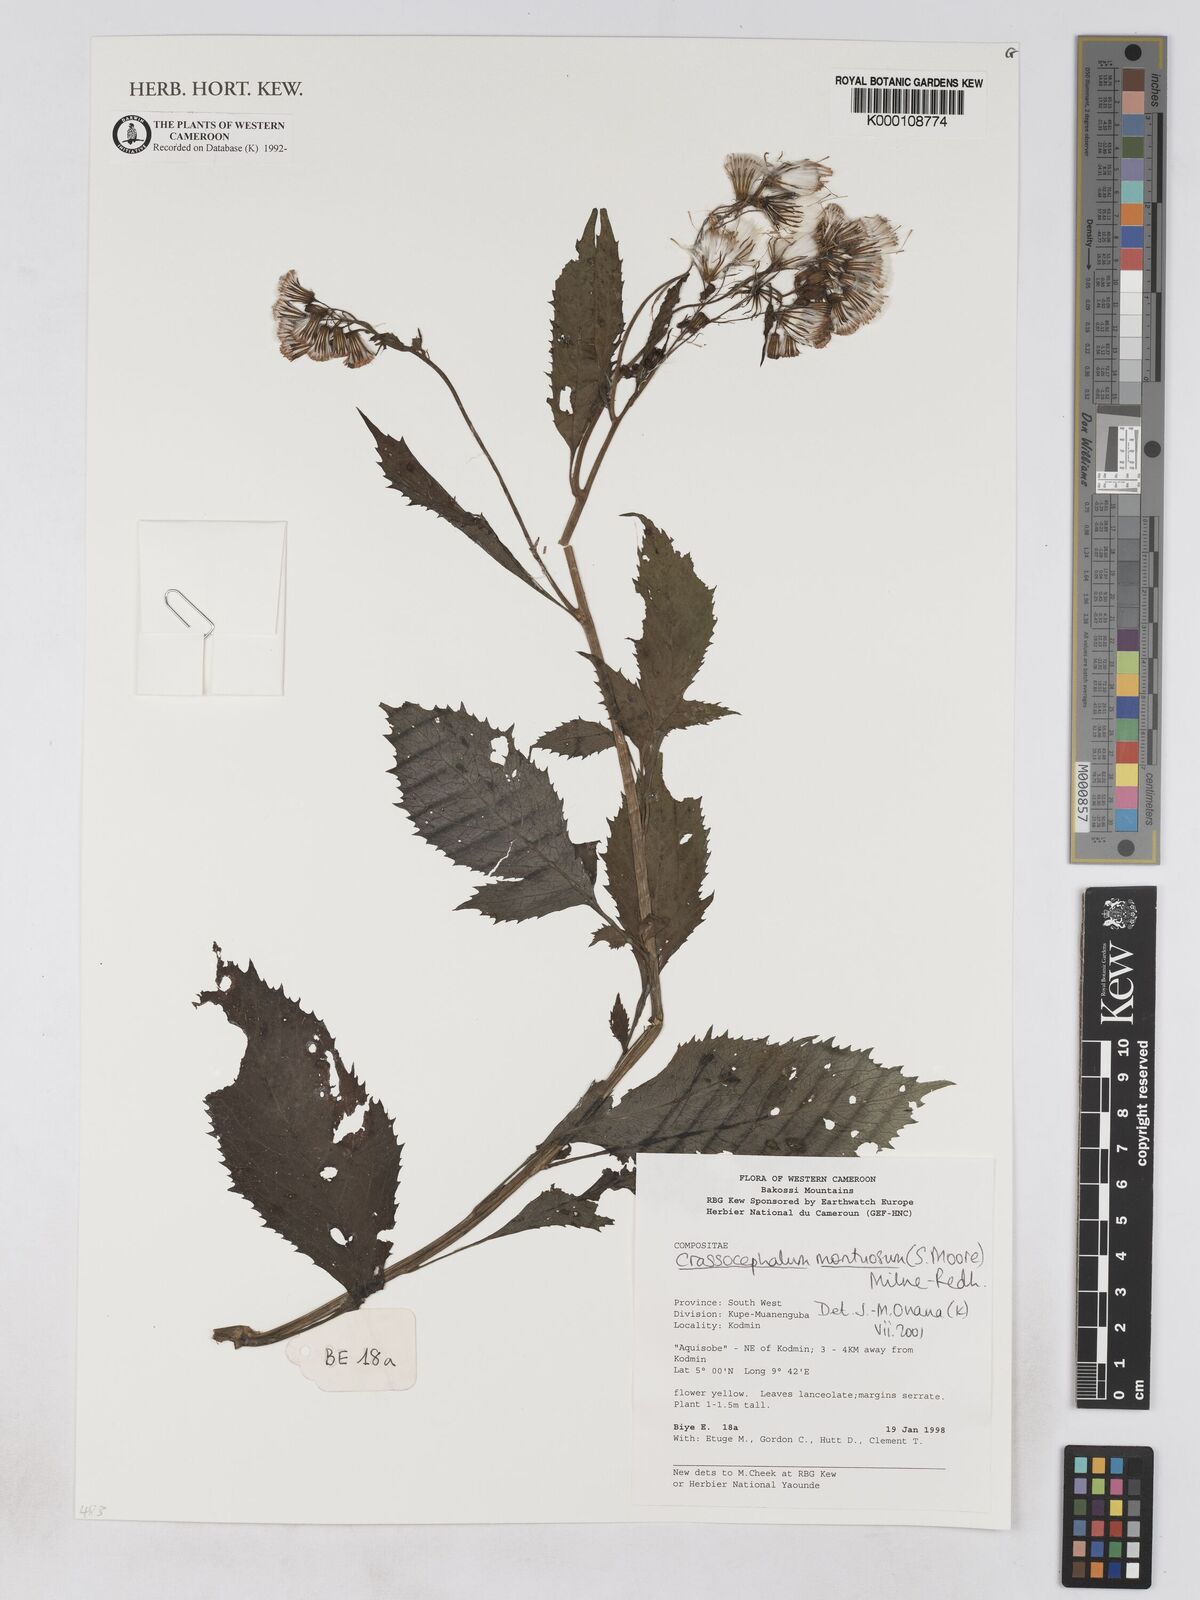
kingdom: Plantae
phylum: Tracheophyta
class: Magnoliopsida
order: Asterales
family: Asteraceae
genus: Crassocephalum
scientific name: Crassocephalum montuosum
